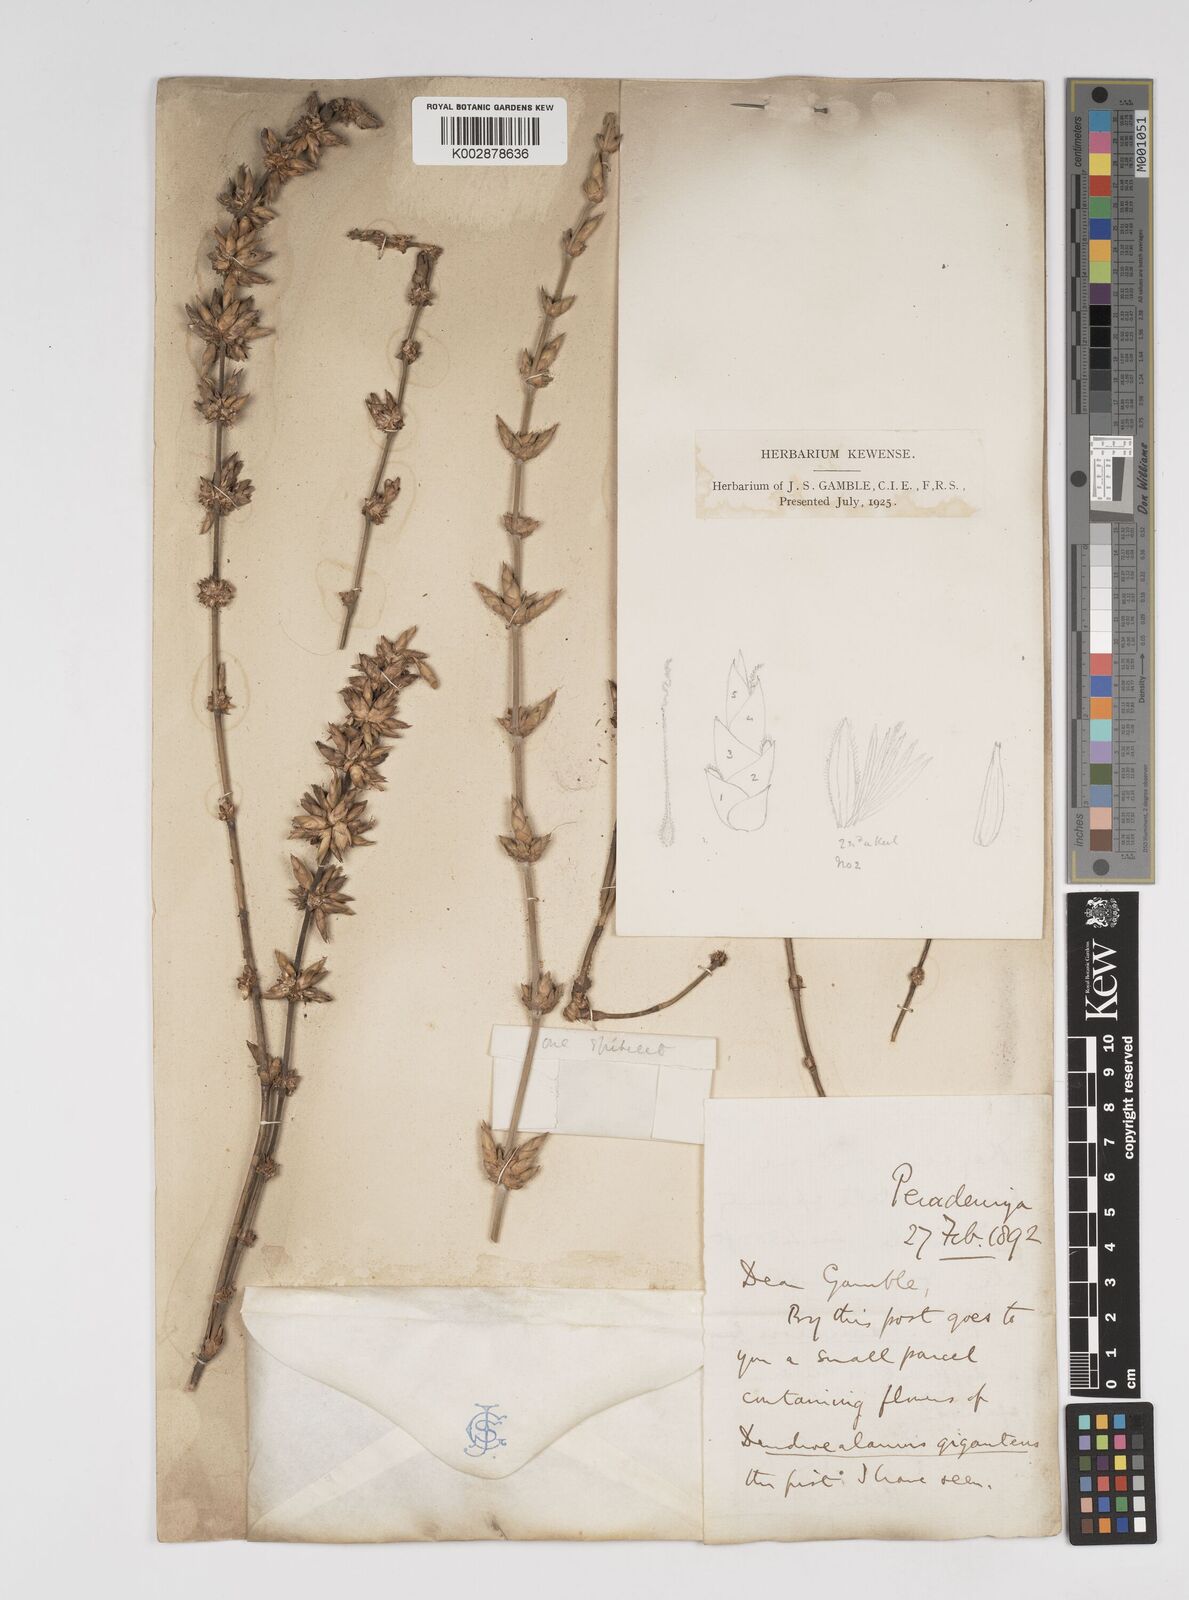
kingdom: Plantae
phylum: Tracheophyta
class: Liliopsida
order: Poales
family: Poaceae
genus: Dendrocalamus
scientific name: Dendrocalamus giganteus
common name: Giant bamboo
